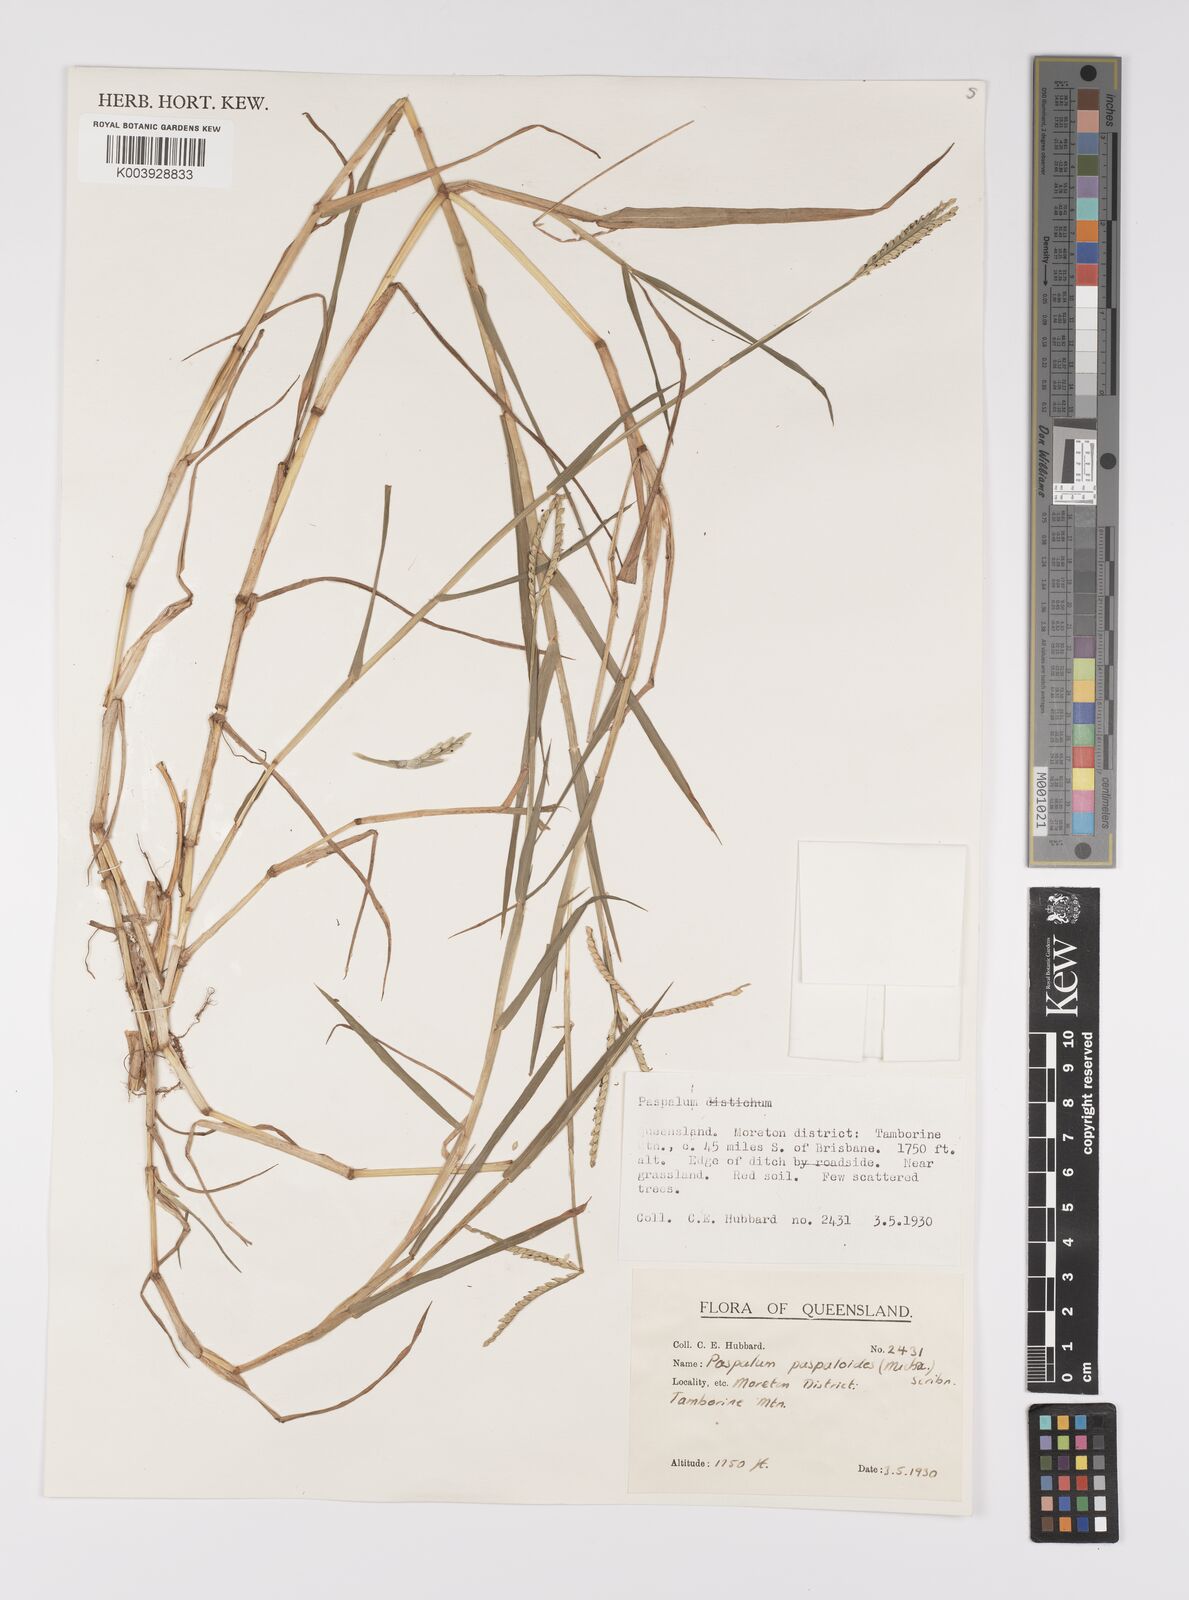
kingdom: Plantae
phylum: Tracheophyta
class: Liliopsida
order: Poales
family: Poaceae
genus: Paspalum
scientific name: Paspalum distichum
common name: Knotgrass
